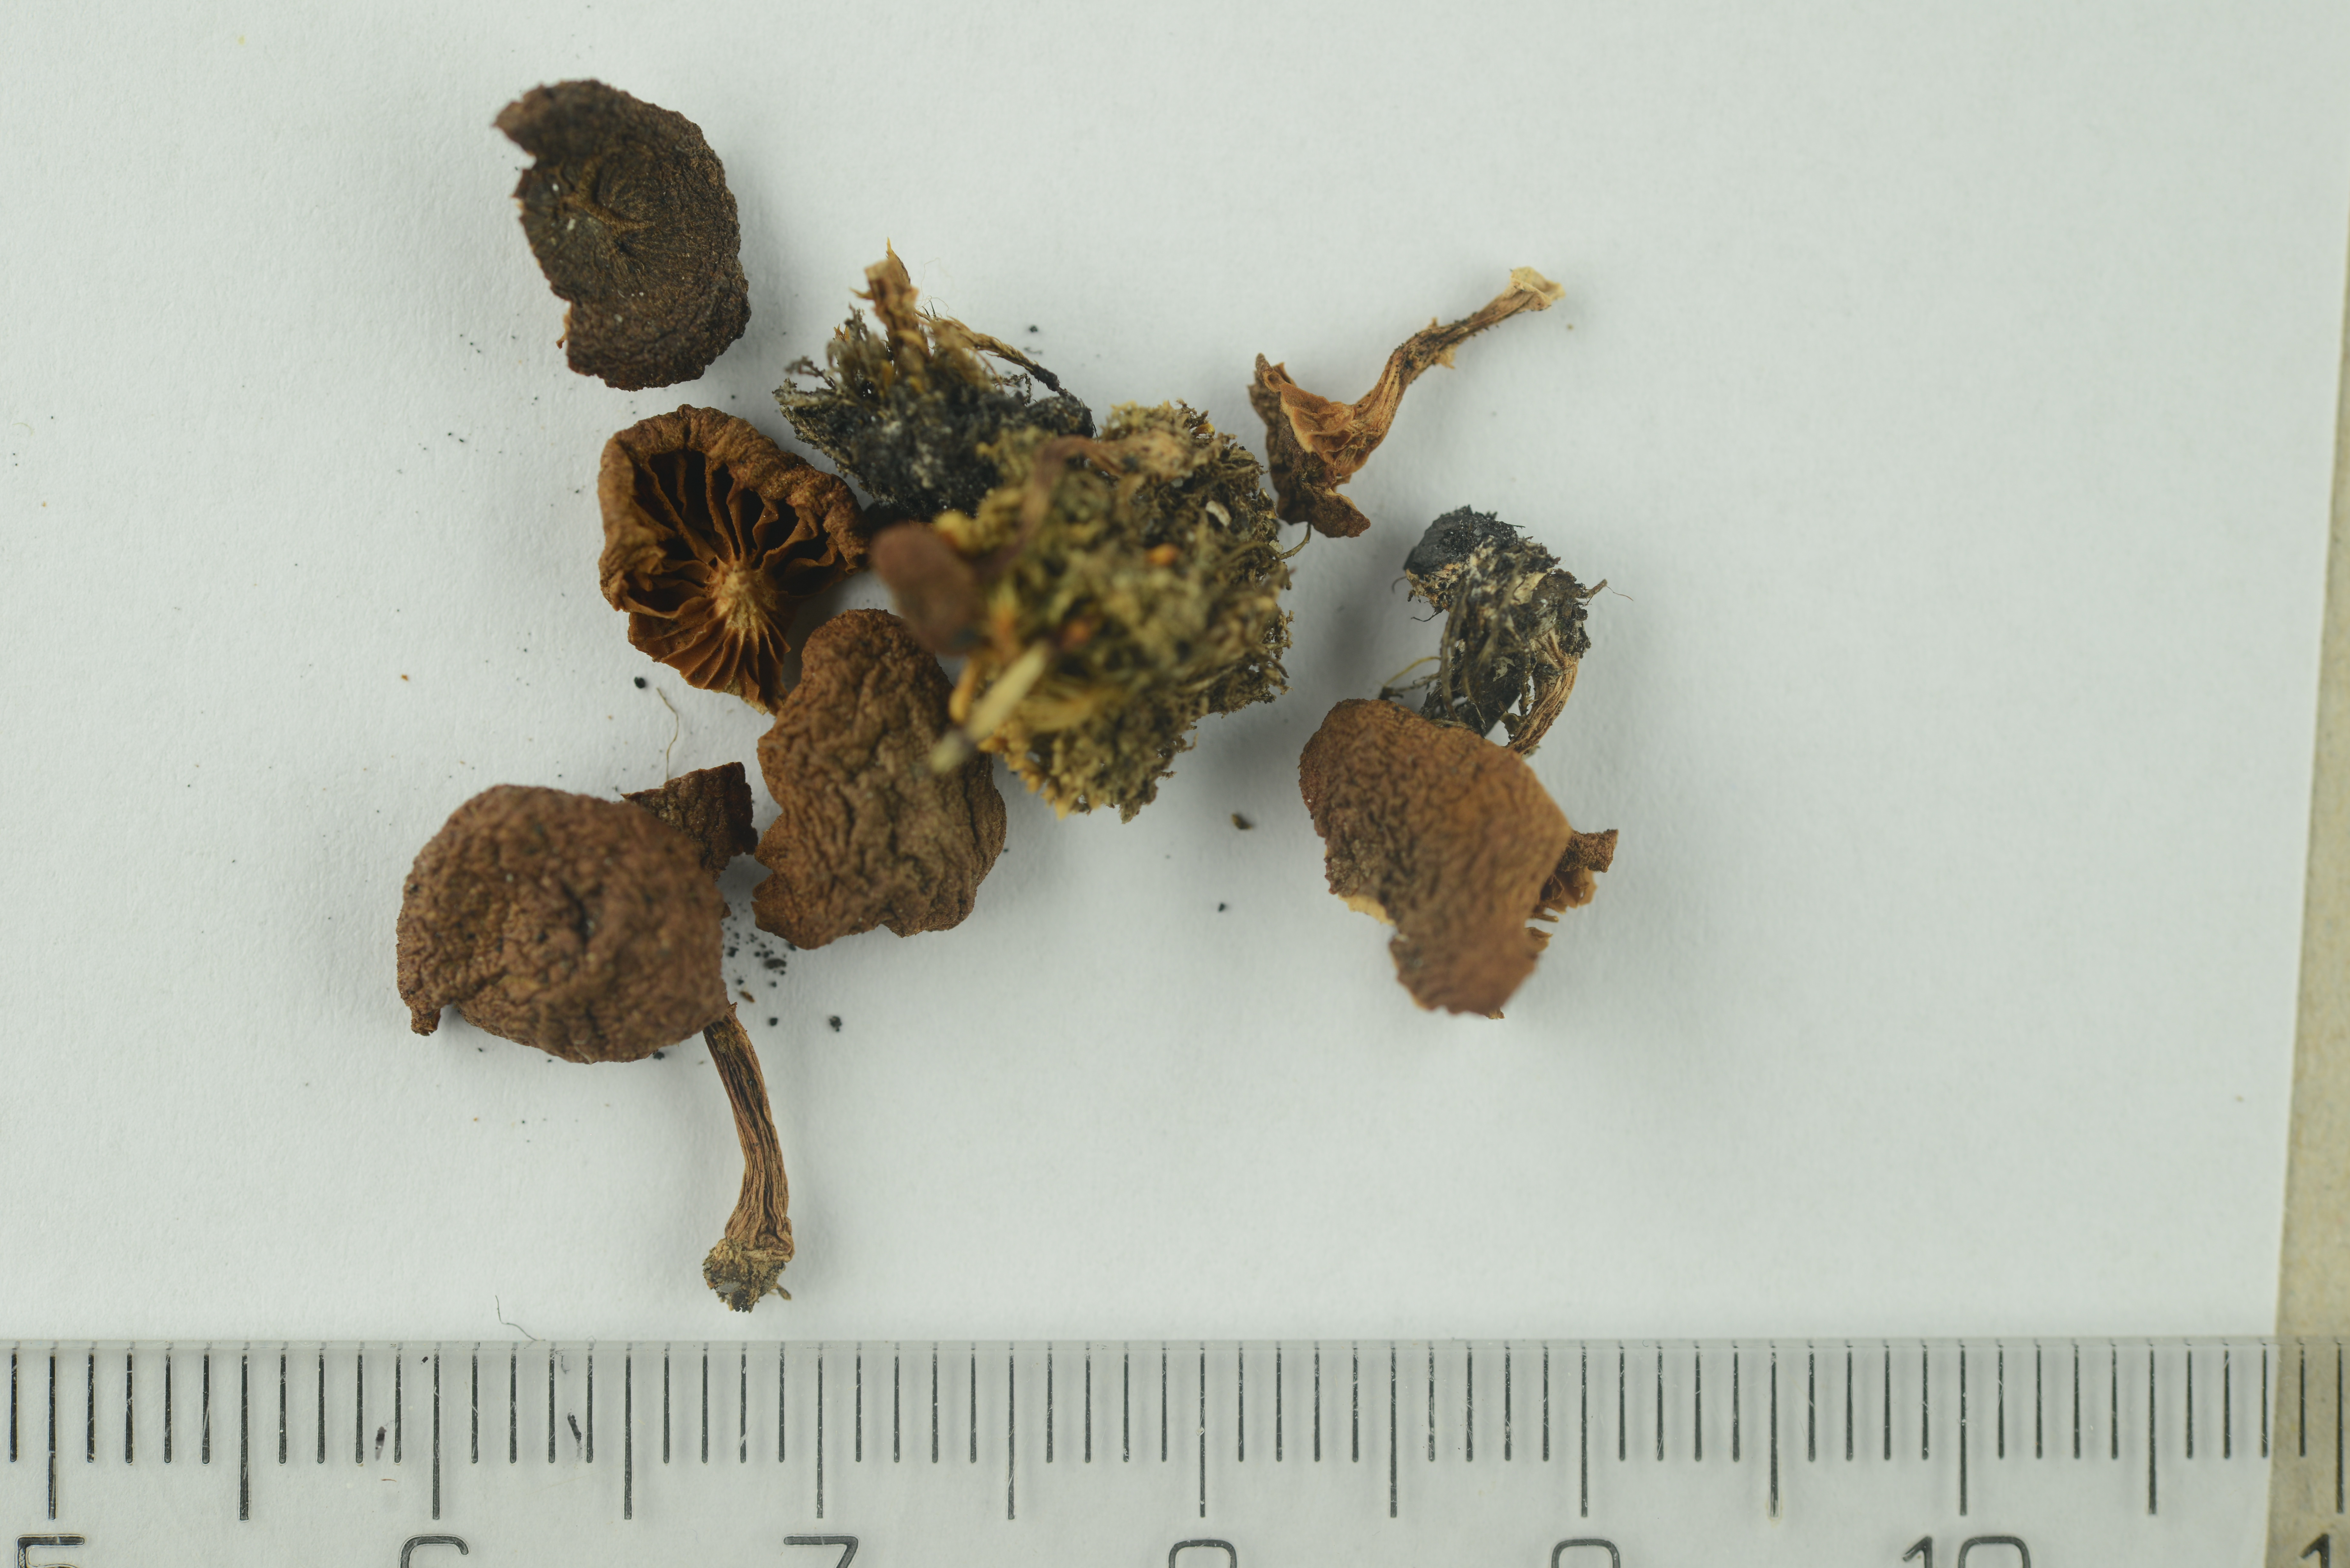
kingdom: Fungi
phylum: Basidiomycota
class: Agaricomycetes
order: Agaricales
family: Cortinariaceae
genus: Cortinarius
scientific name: Cortinarius
